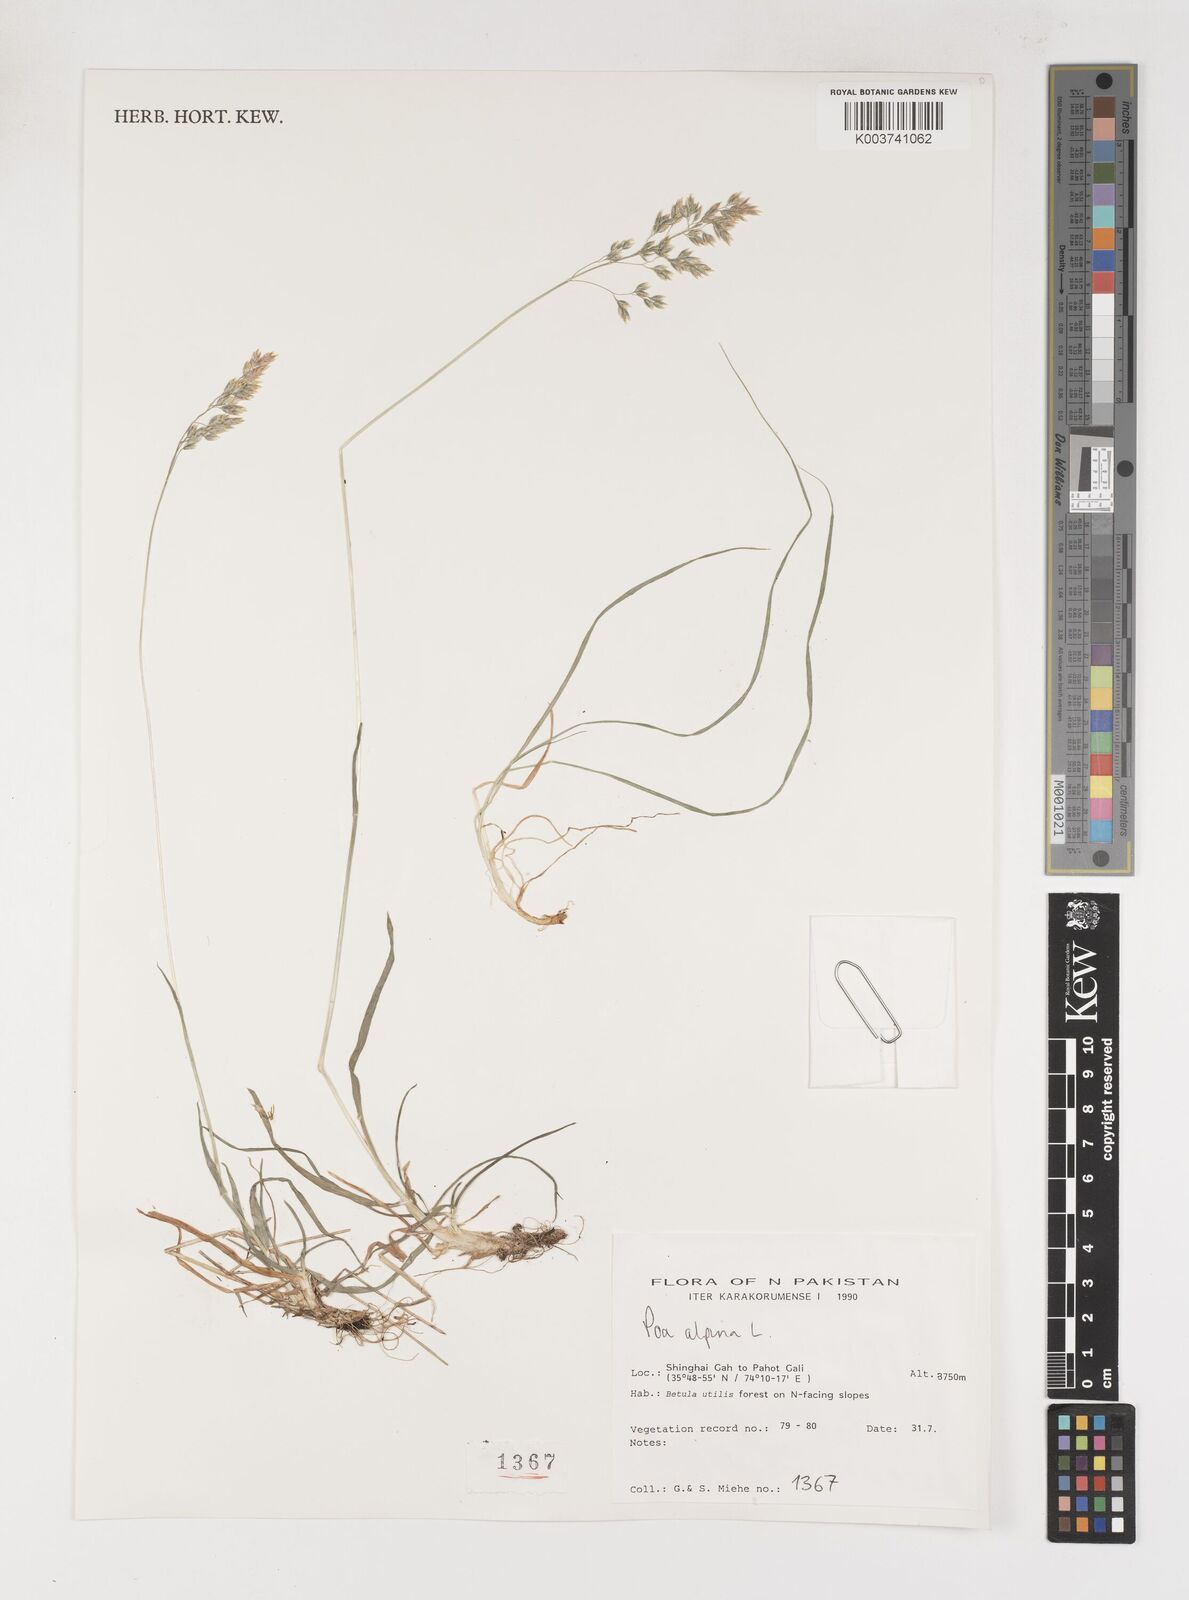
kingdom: Plantae
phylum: Tracheophyta
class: Liliopsida
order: Poales
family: Poaceae
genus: Poa
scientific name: Poa alpina
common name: Alpine bluegrass
